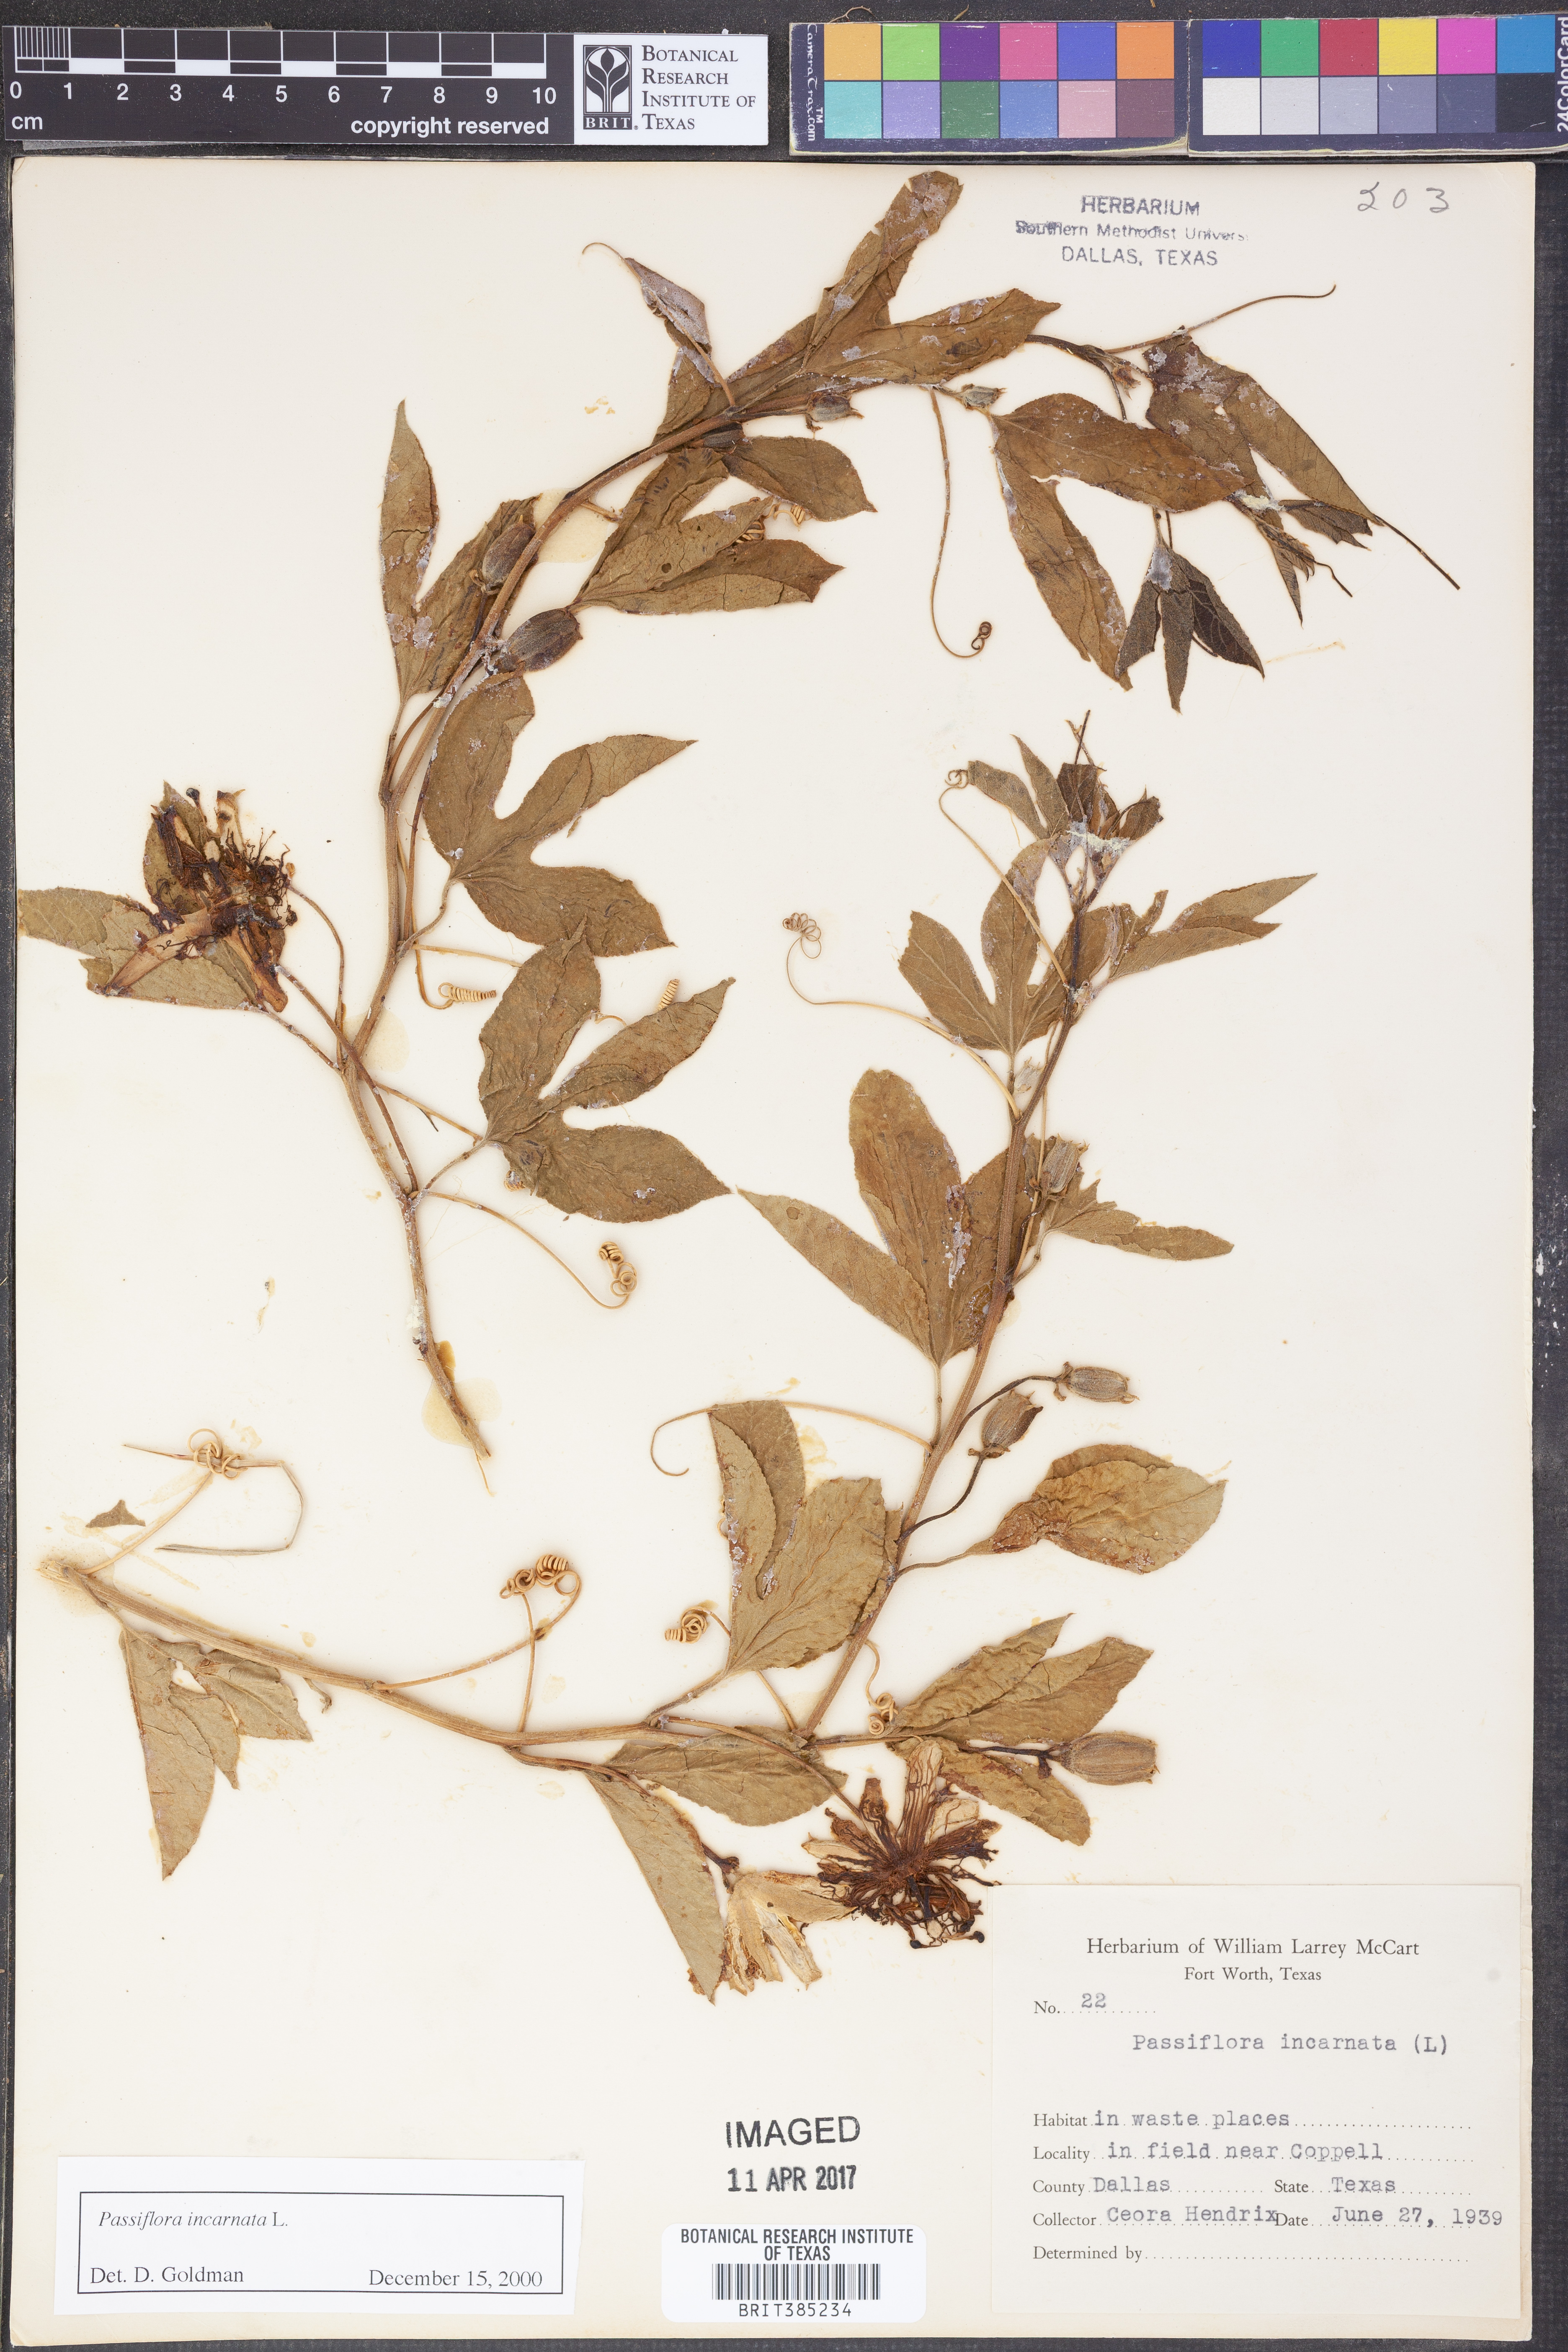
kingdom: Plantae
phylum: Tracheophyta
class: Magnoliopsida
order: Malpighiales
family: Passifloraceae
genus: Passiflora
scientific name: Passiflora incarnata
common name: Apricot-vine
